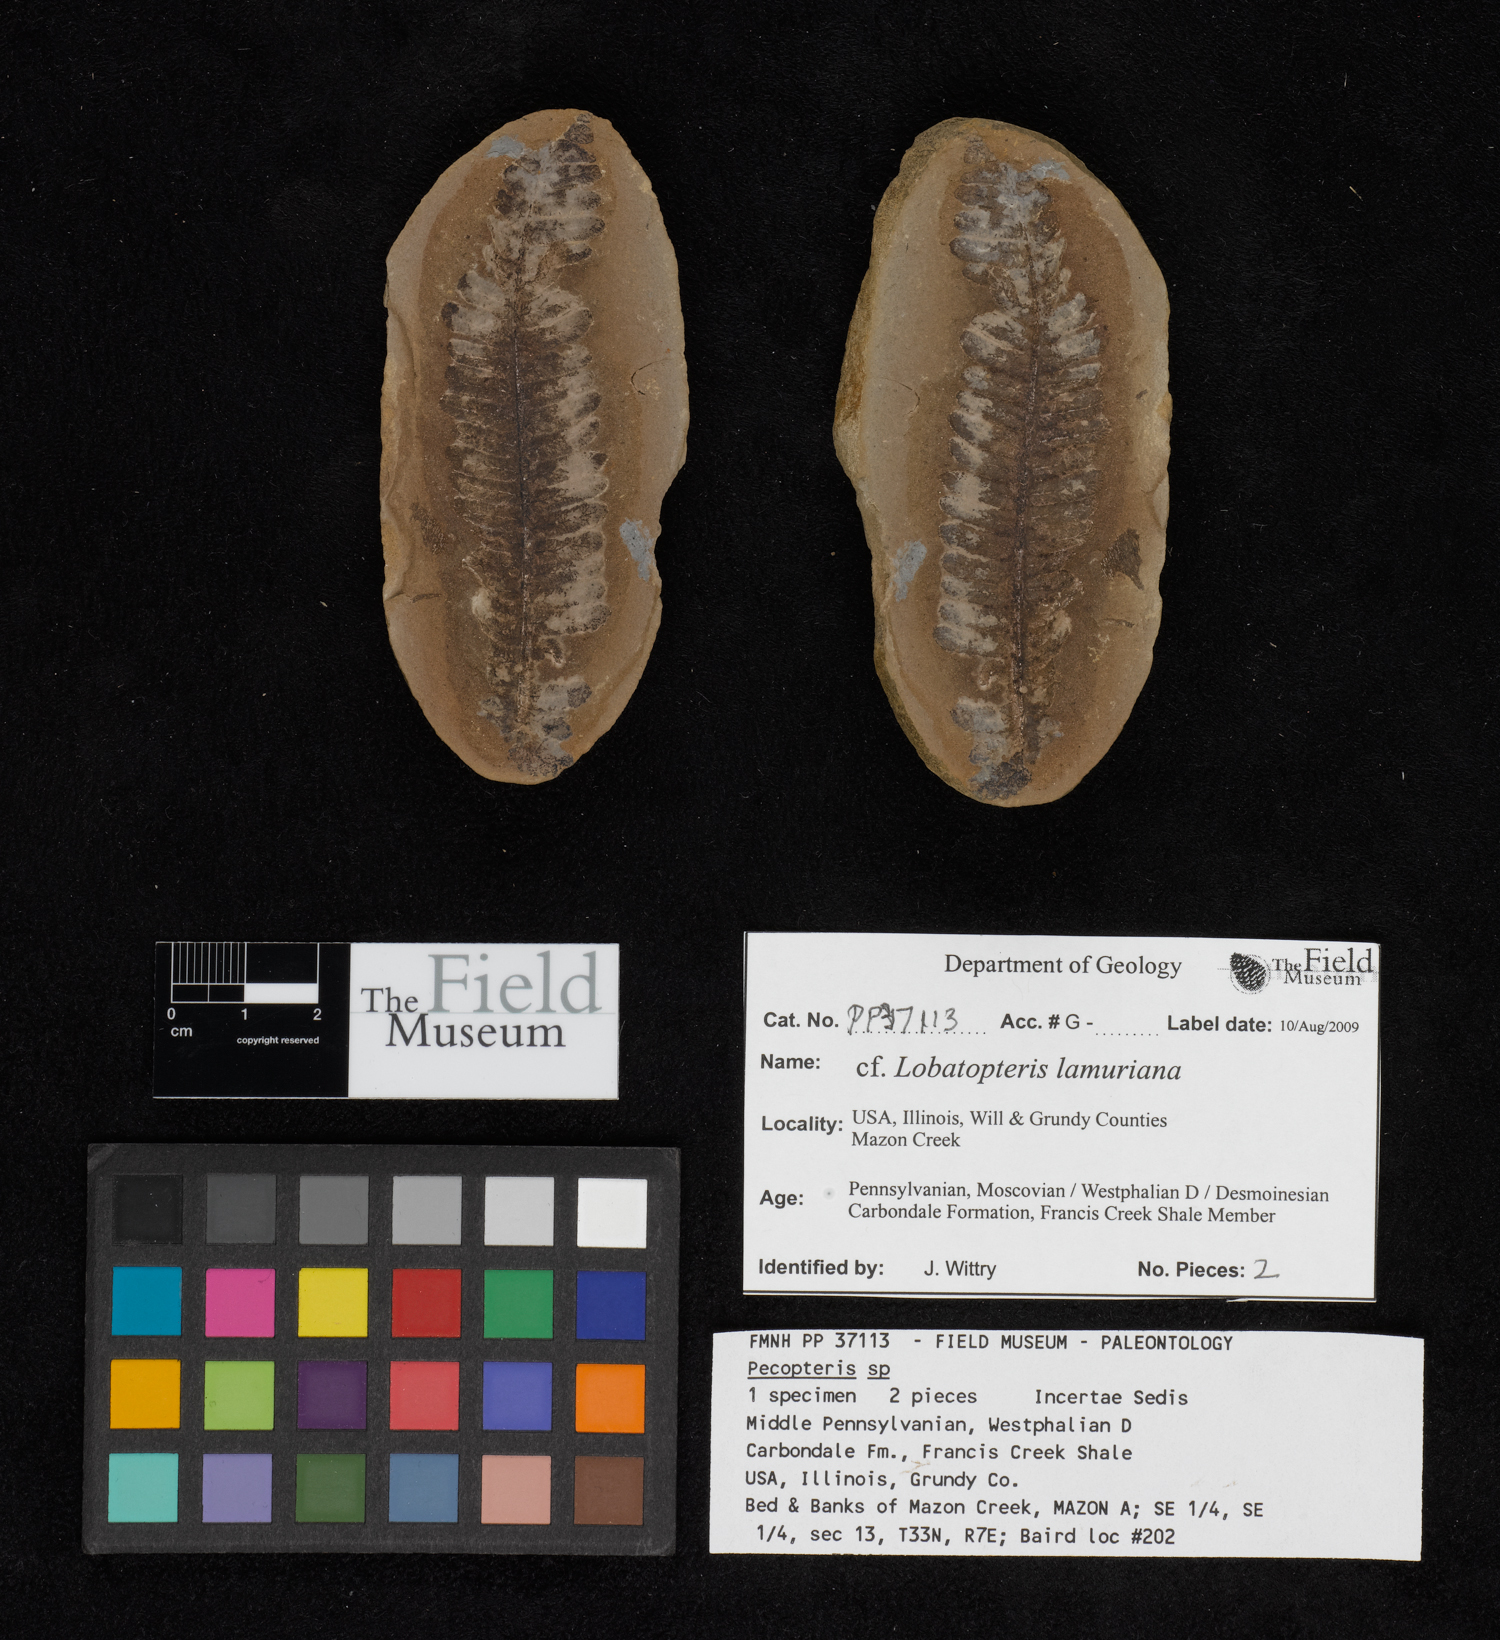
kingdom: Plantae
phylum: Tracheophyta
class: Polypodiopsida
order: Marattiales
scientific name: Marattiales
